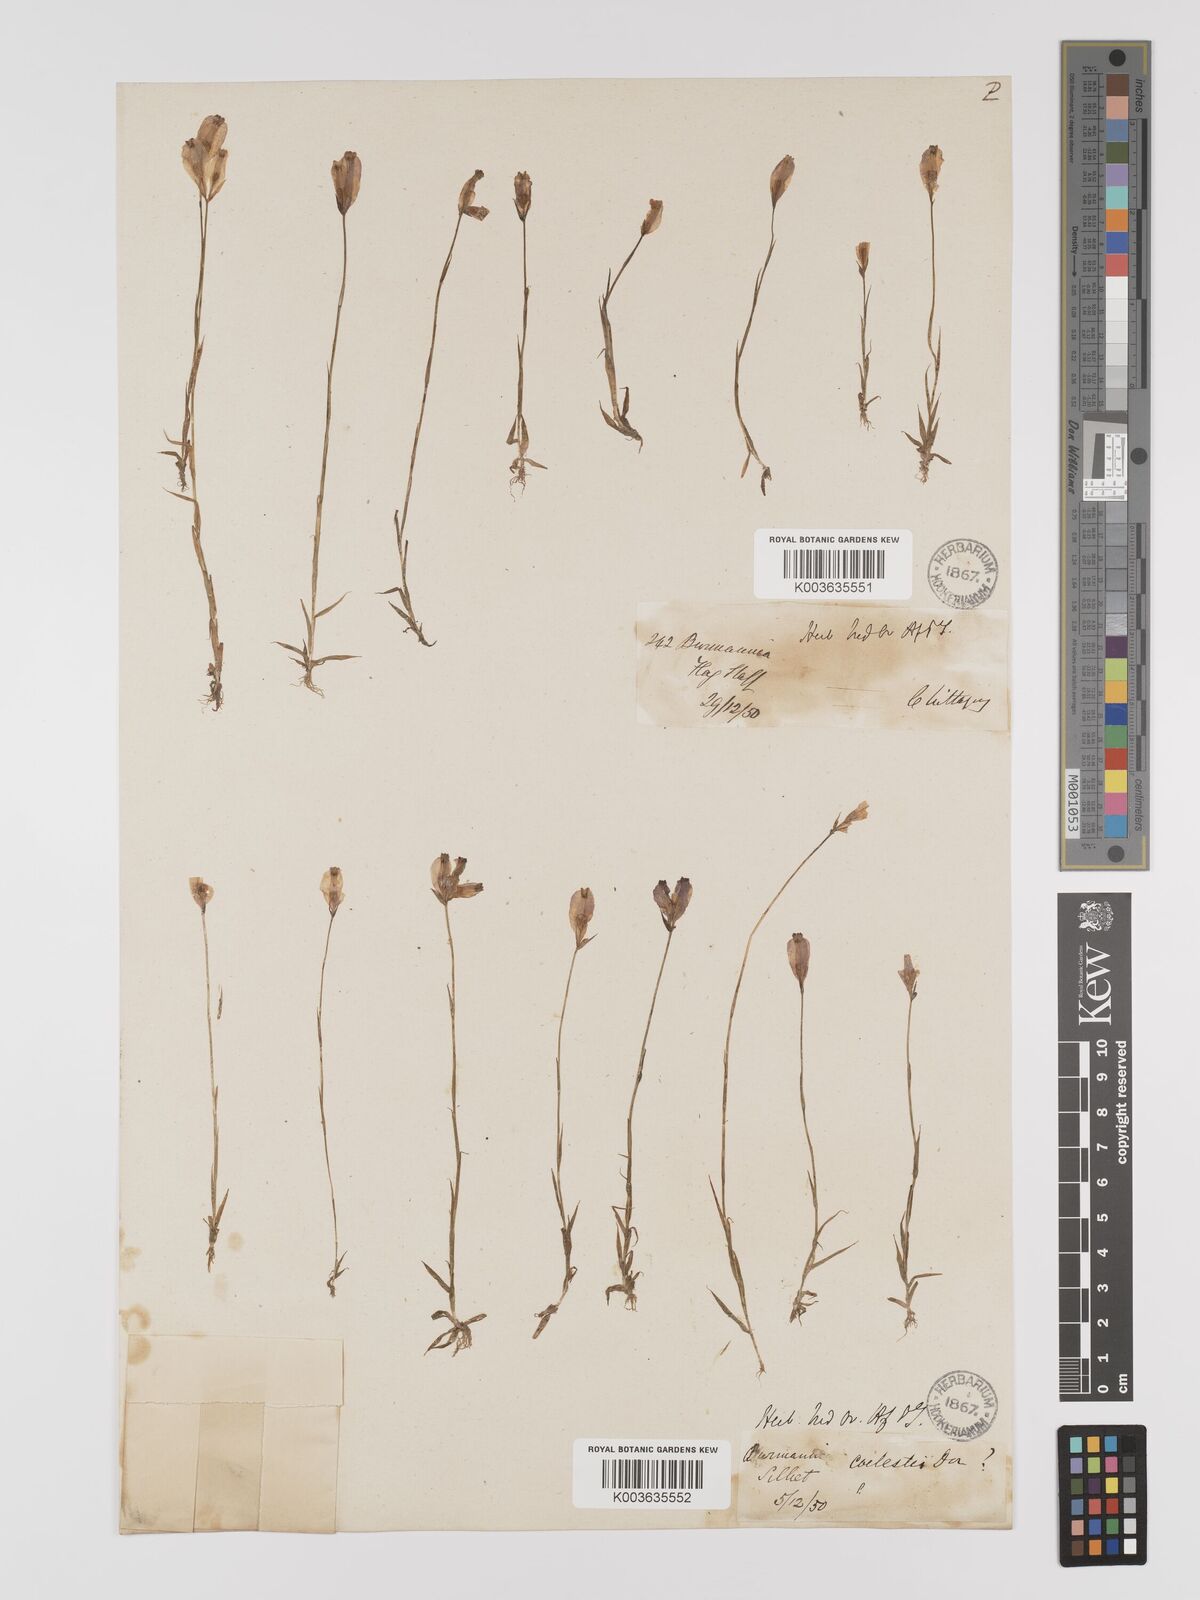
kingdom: Plantae
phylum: Tracheophyta
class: Liliopsida
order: Dioscoreales
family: Burmanniaceae
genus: Burmannia
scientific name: Burmannia coelestis
